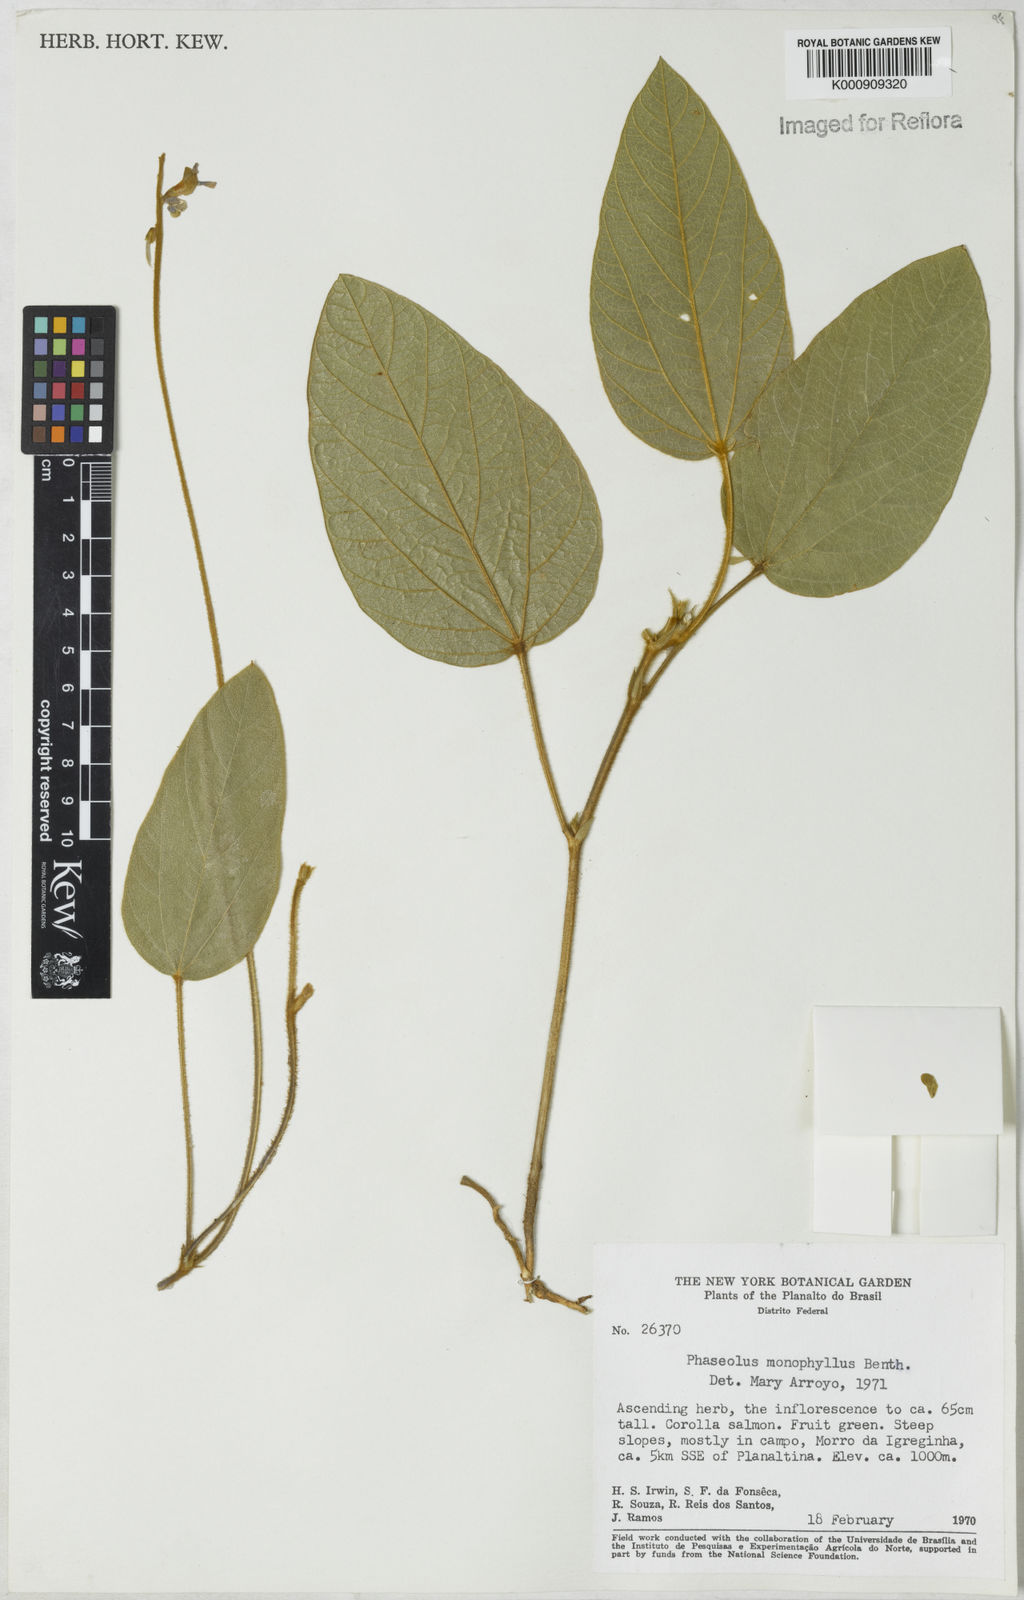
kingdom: Plantae
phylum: Tracheophyta
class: Magnoliopsida
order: Fabales
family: Fabaceae
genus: Macroptilium
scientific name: Macroptilium monophyllum
